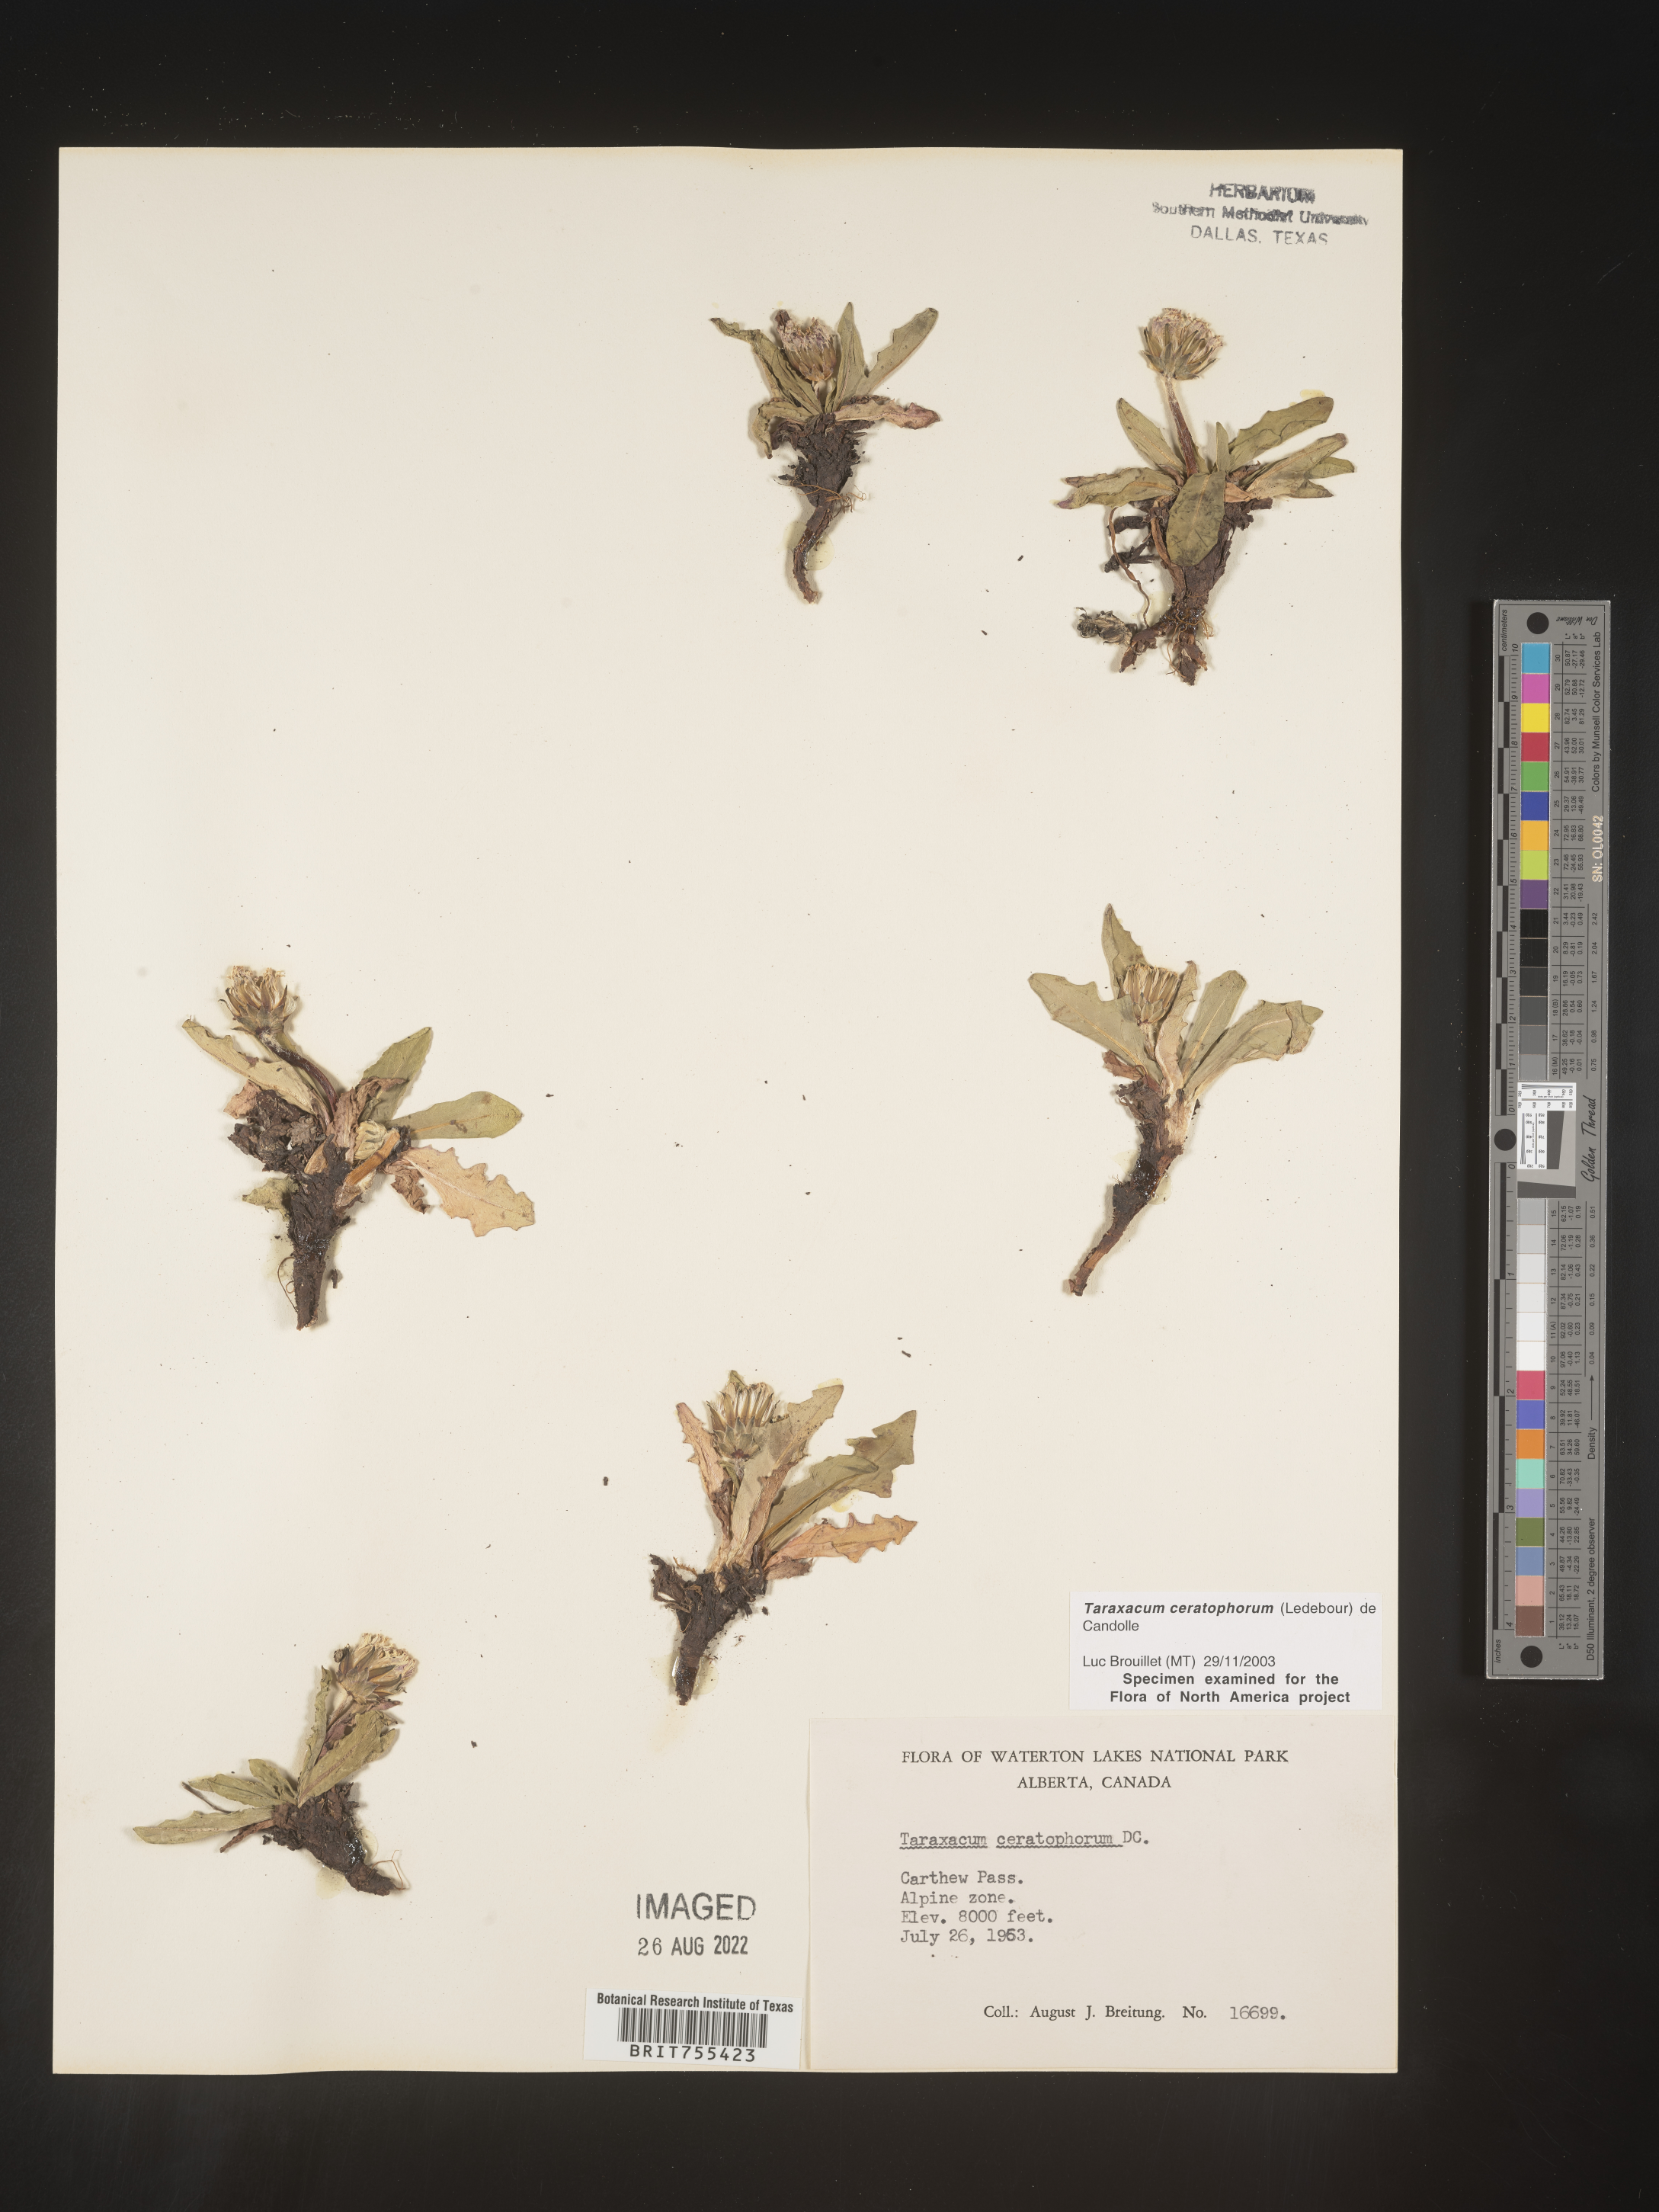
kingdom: Plantae
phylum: Tracheophyta
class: Magnoliopsida
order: Asterales
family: Asteraceae
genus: Taraxacum
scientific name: Taraxacum
